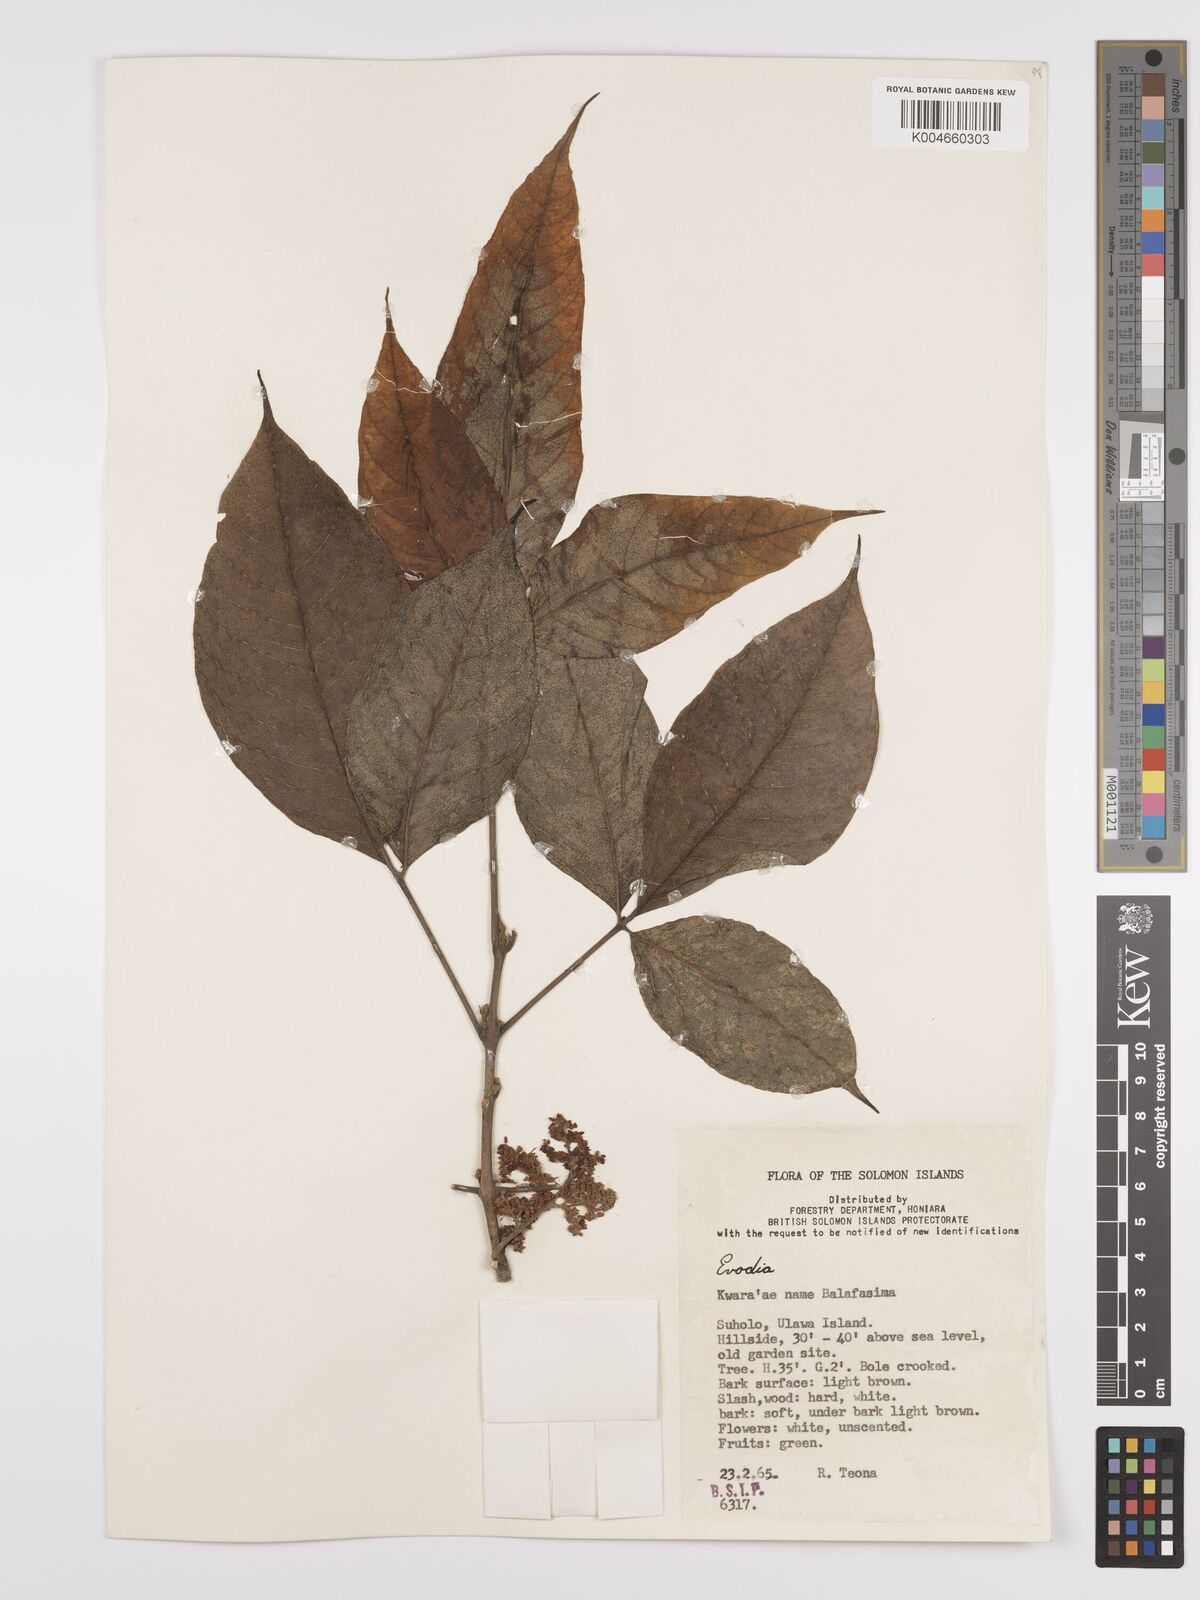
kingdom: Plantae
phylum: Tracheophyta
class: Magnoliopsida
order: Sapindales
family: Rutaceae
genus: Euodia
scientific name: Euodia
